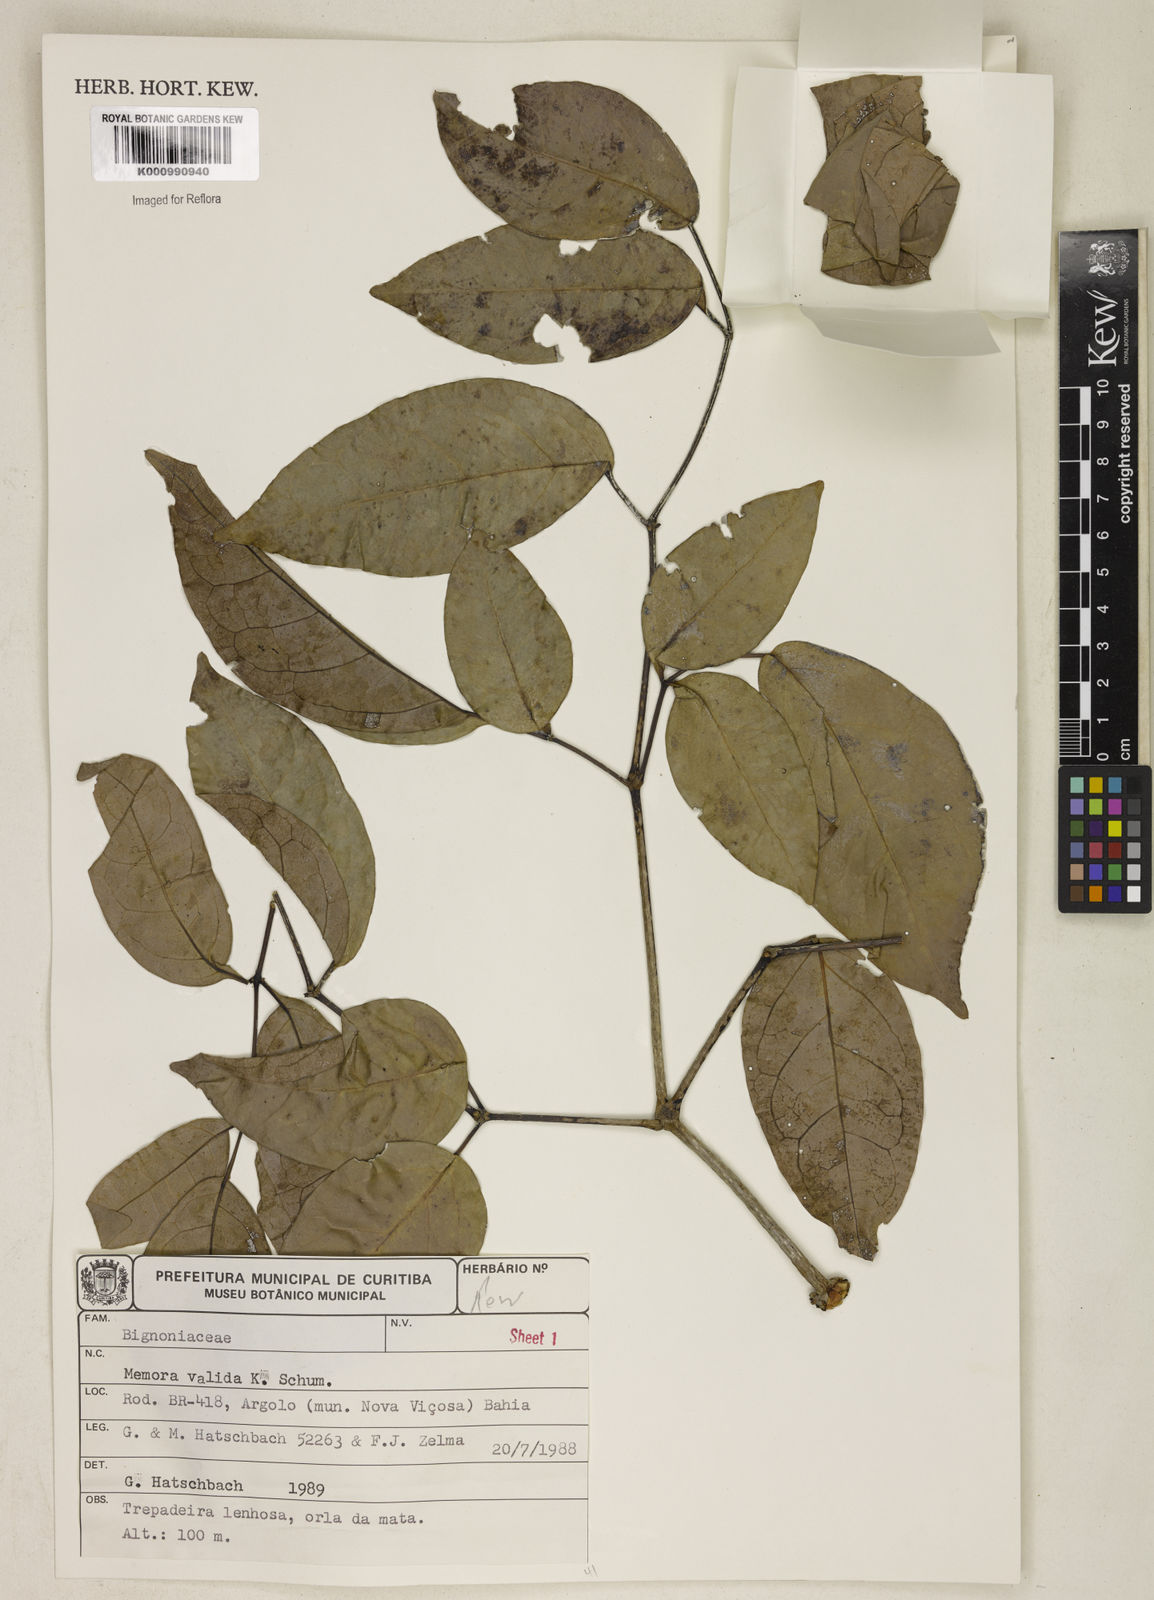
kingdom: Plantae
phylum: Tracheophyta
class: Magnoliopsida
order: Lamiales
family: Bignoniaceae
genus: Adenocalymma
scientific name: Adenocalymma validum
